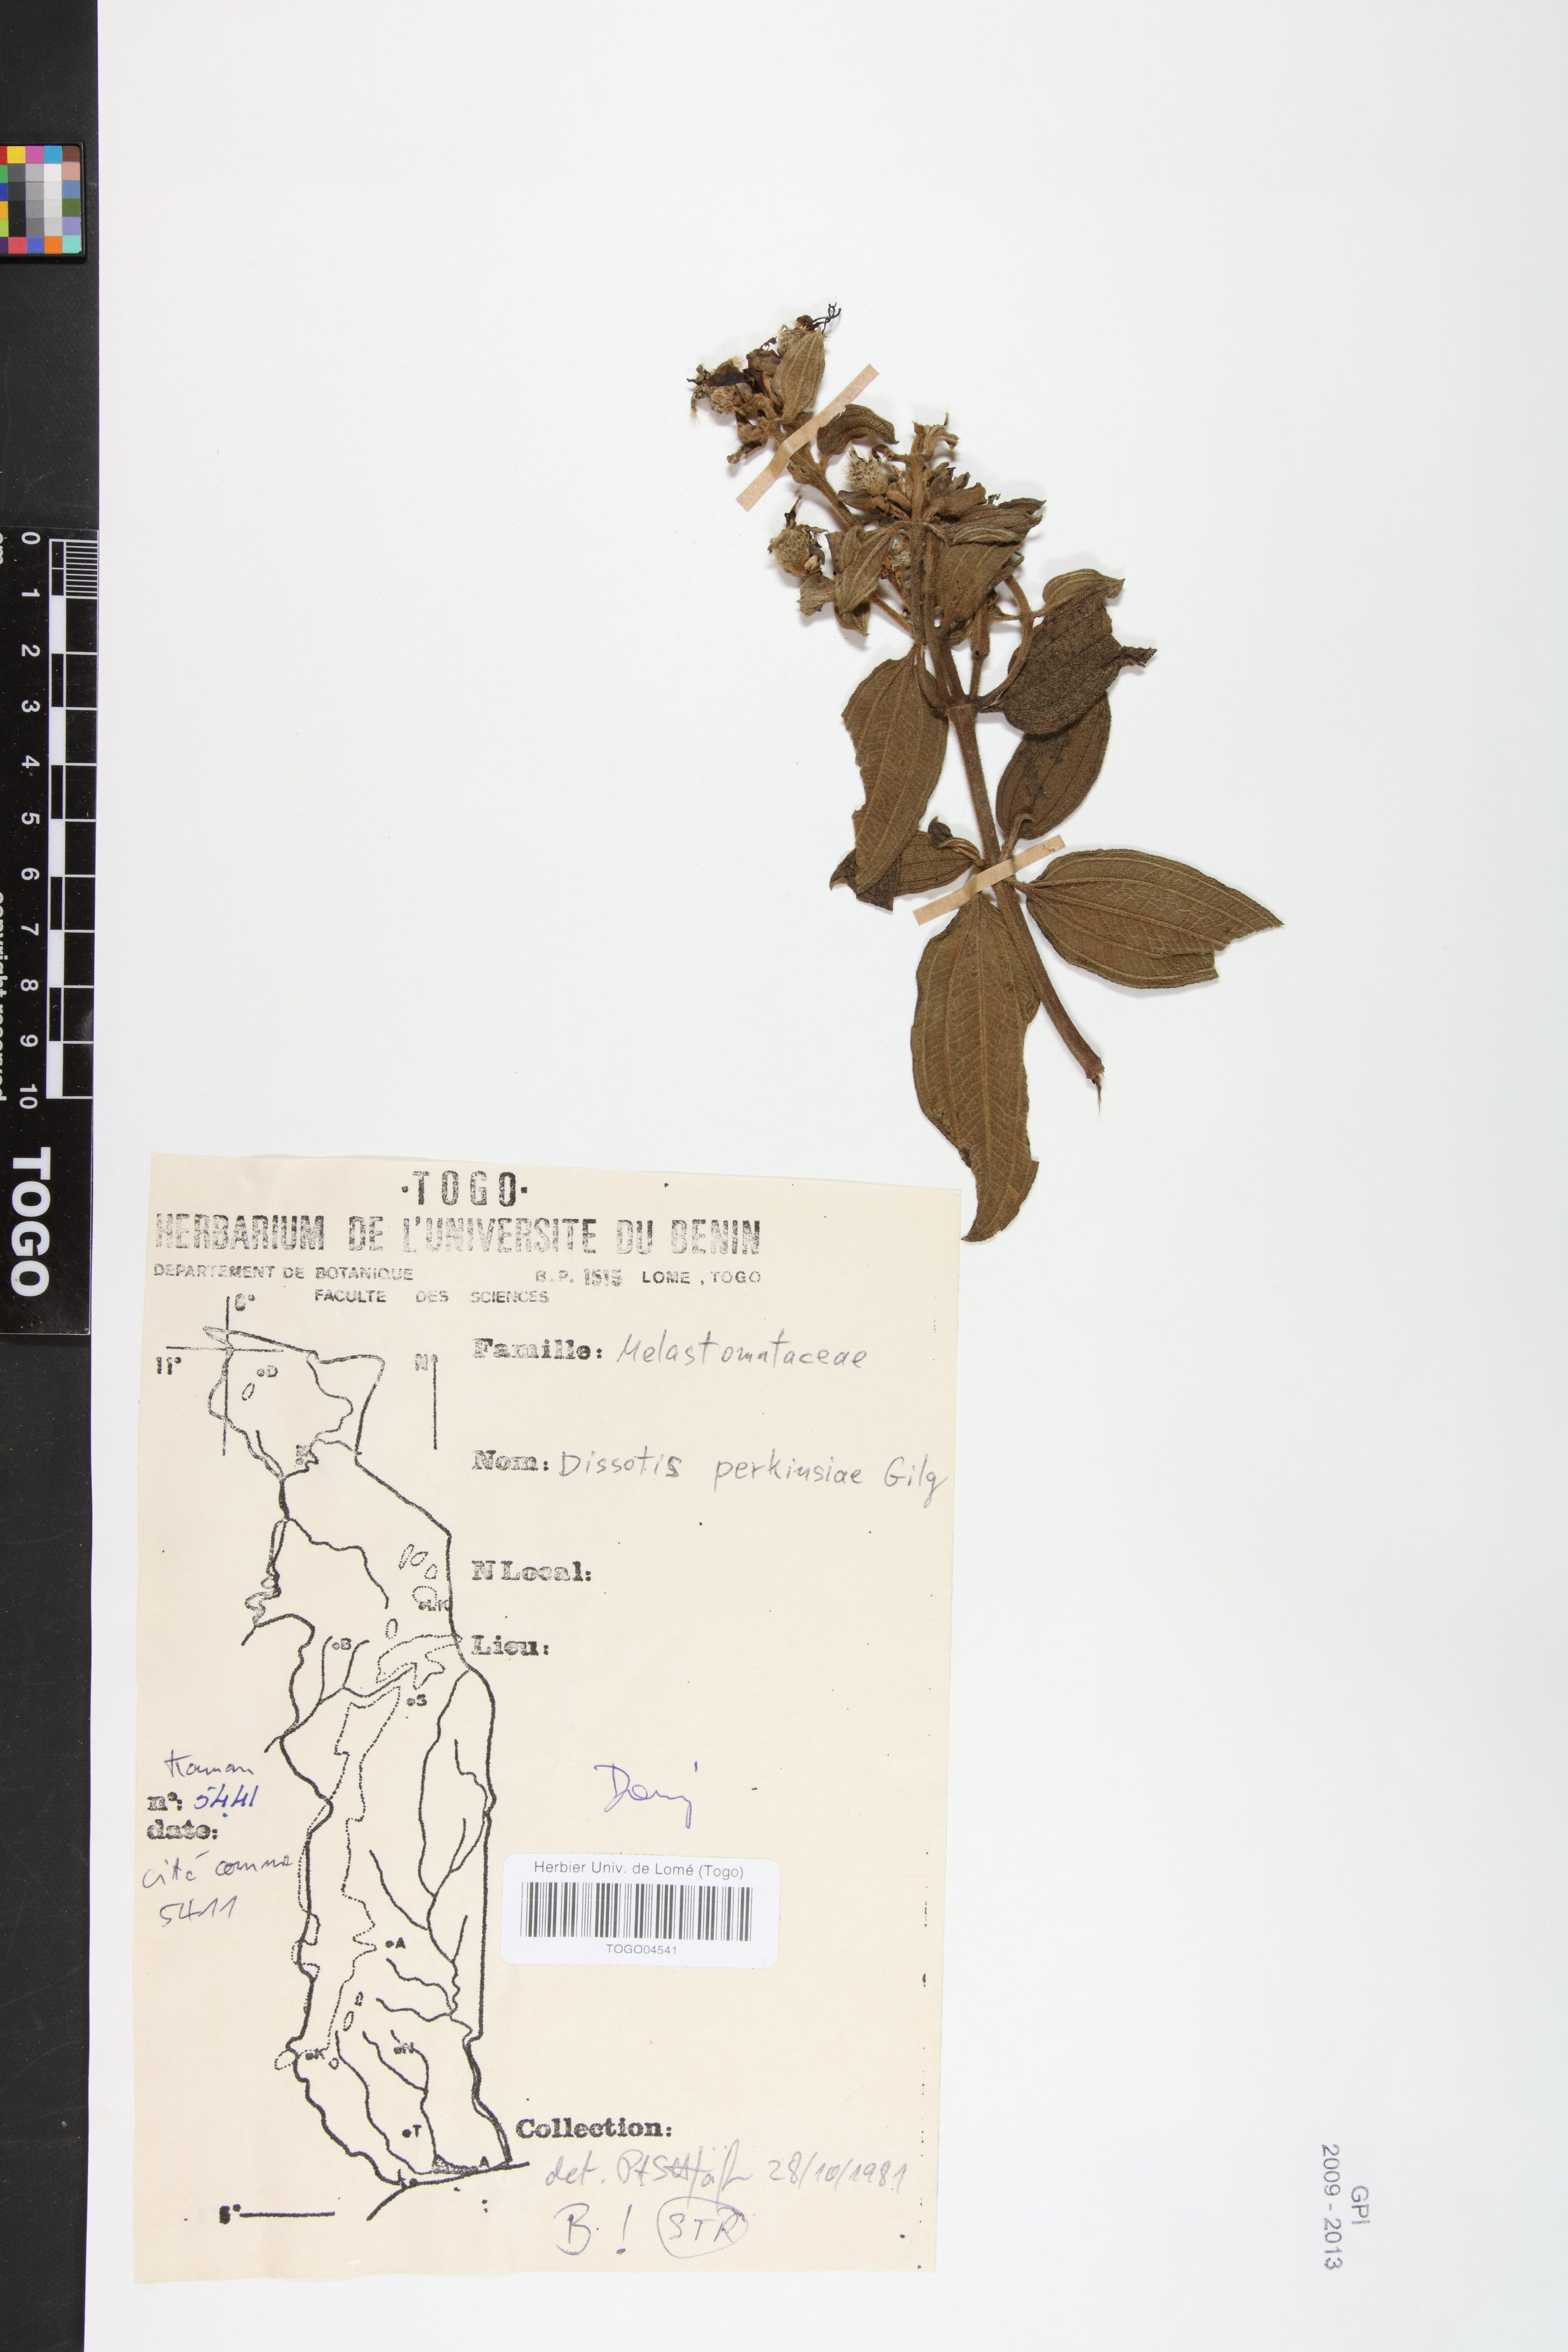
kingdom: Plantae
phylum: Tracheophyta
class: Magnoliopsida
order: Myrtales
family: Melastomataceae
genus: Feliciotis
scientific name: Feliciotis perkinsiae
